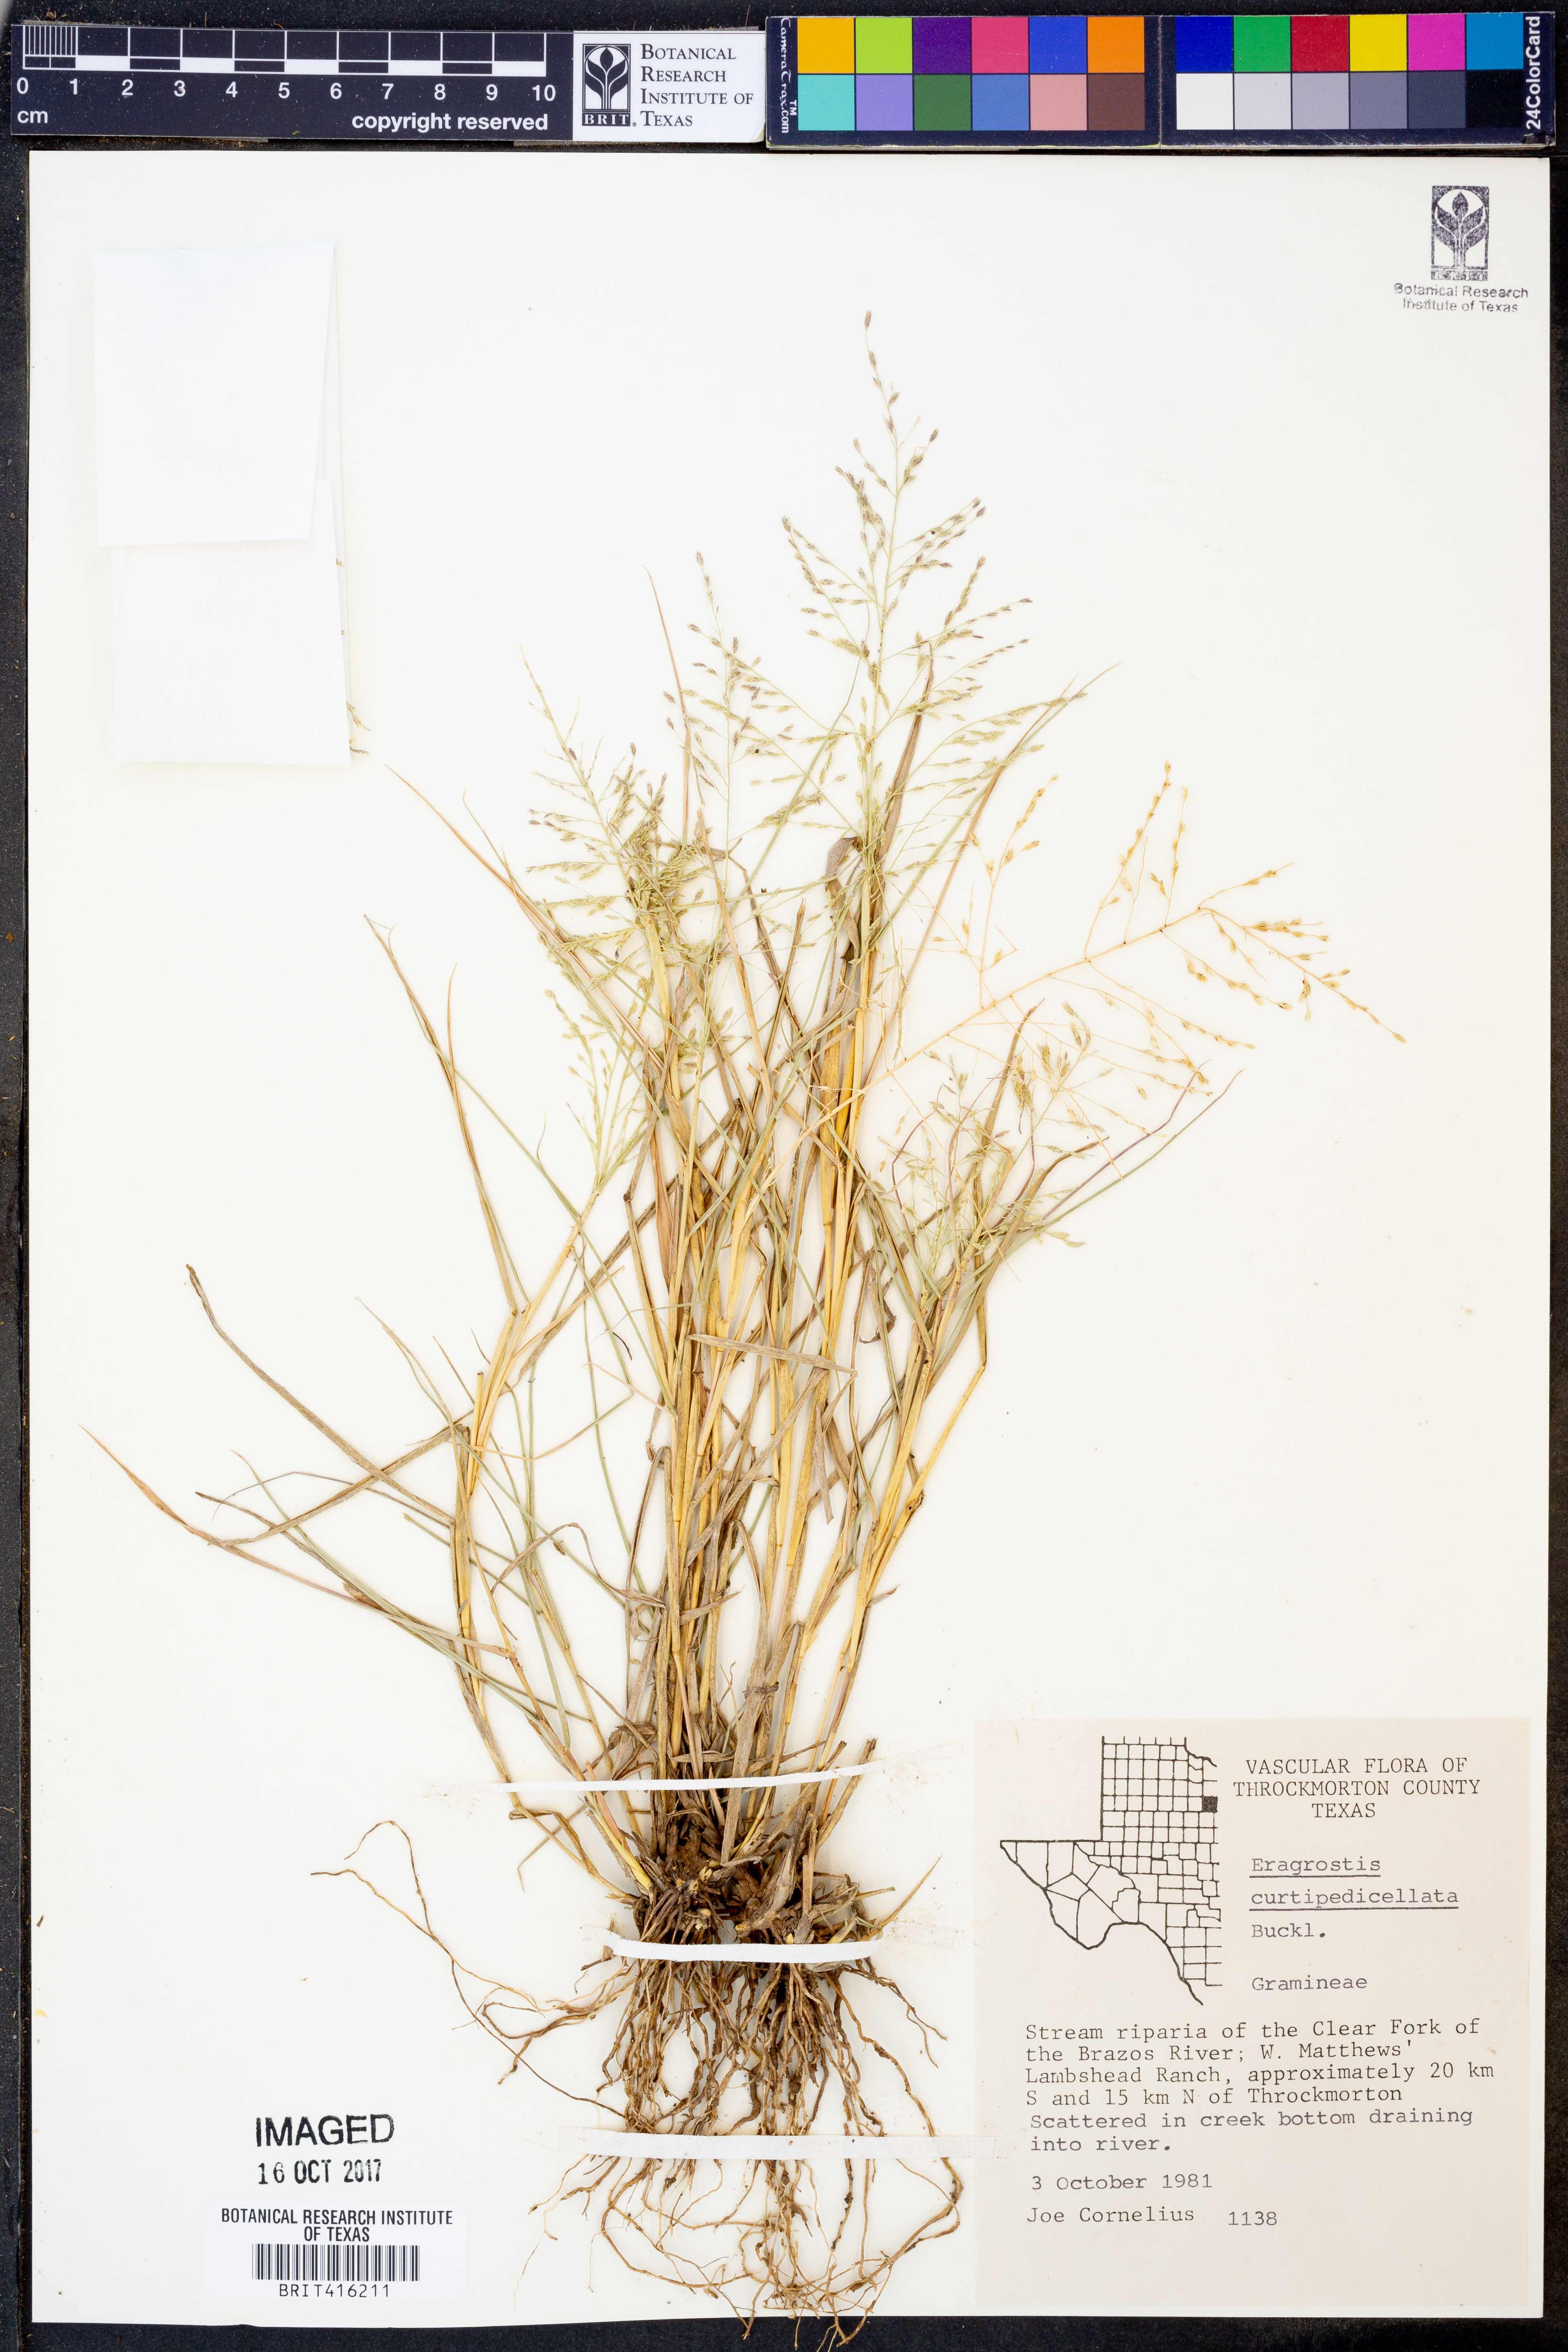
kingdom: Plantae
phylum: Tracheophyta
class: Liliopsida
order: Poales
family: Poaceae
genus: Eragrostis
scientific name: Eragrostis curtipedicellata
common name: Gummy love grass
